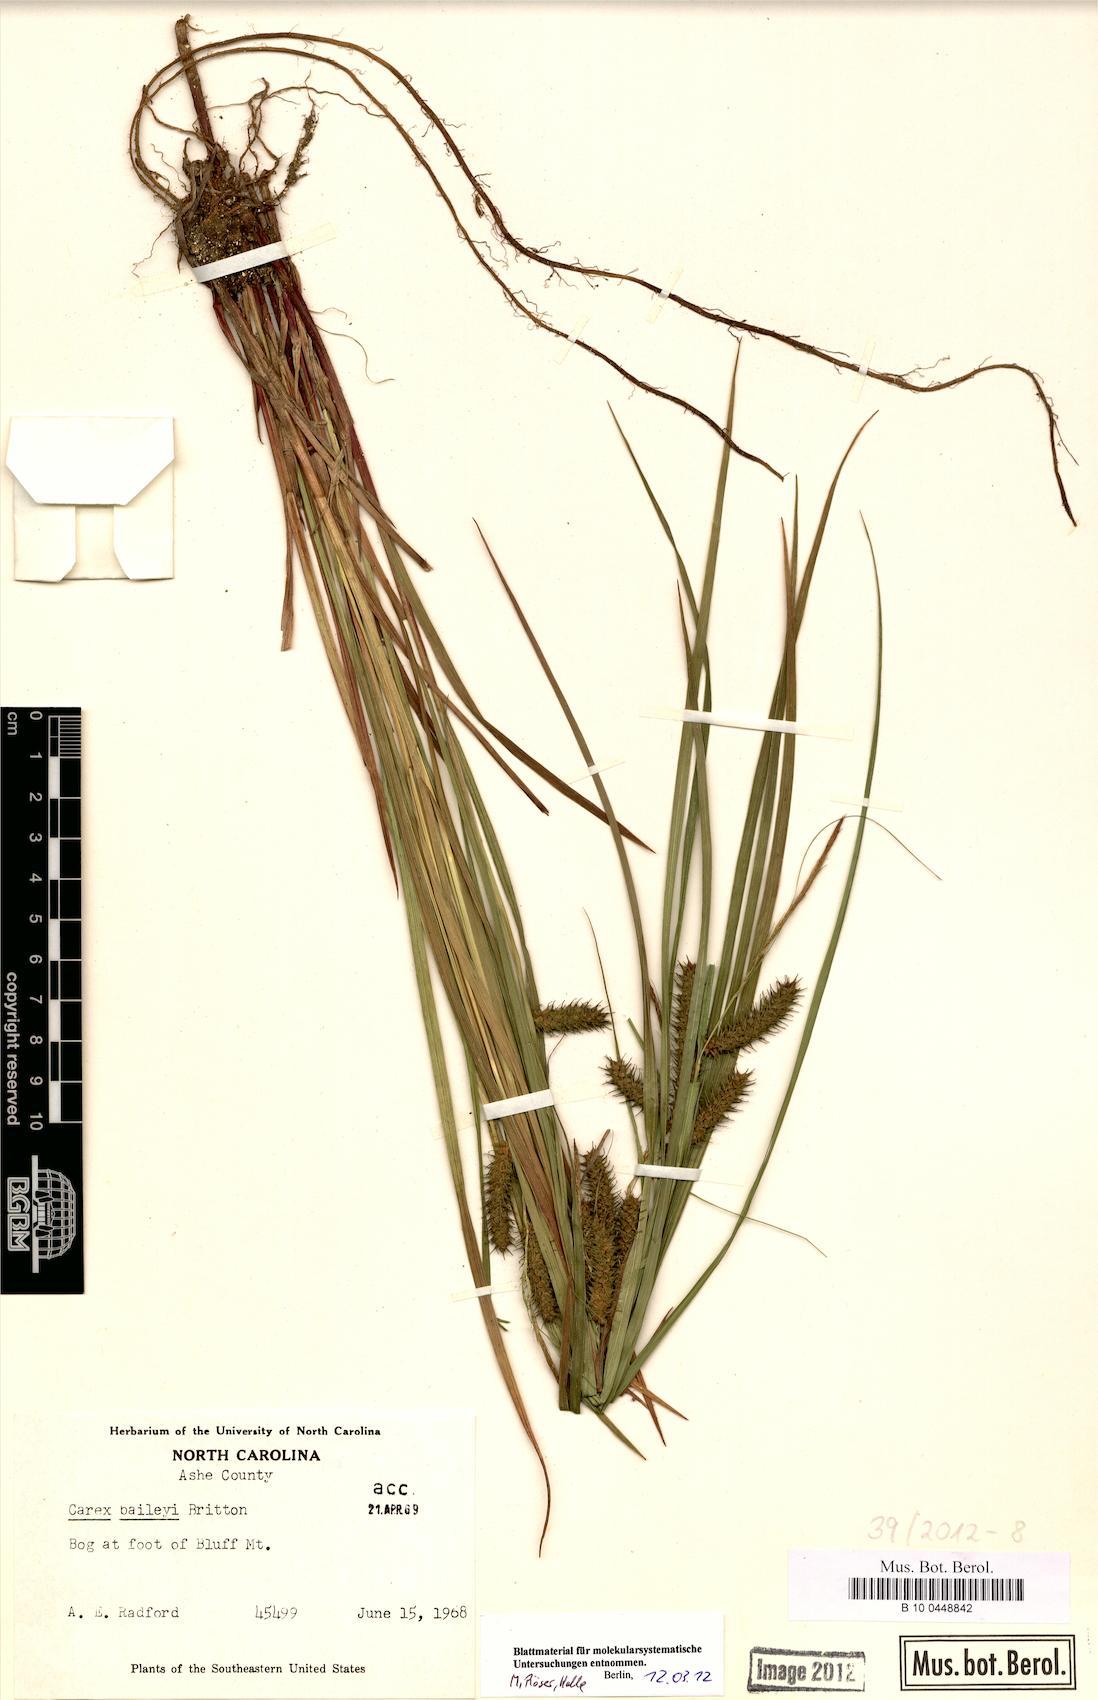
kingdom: Plantae
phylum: Tracheophyta
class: Liliopsida
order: Poales
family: Cyperaceae
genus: Carex
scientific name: Carex baileyi
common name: Bailey's sedge
